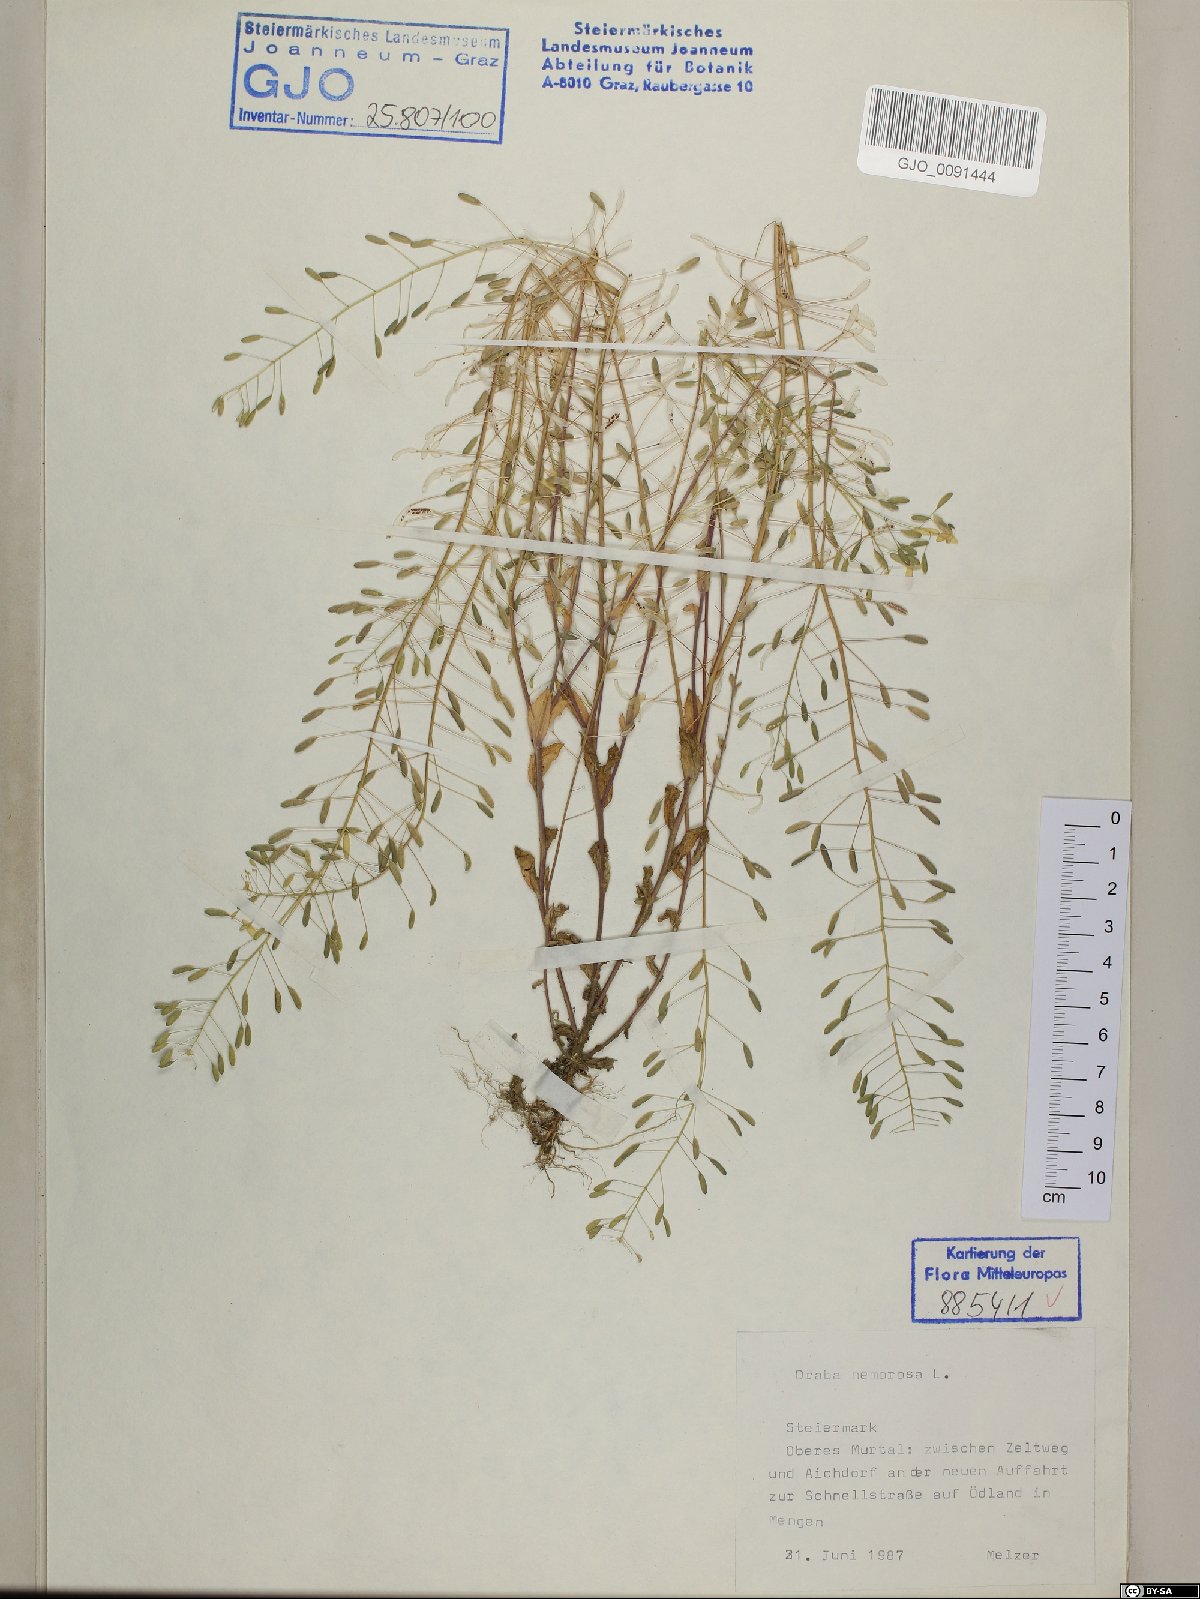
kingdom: Plantae
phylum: Tracheophyta
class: Magnoliopsida
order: Brassicales
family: Brassicaceae
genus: Draba
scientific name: Draba nemorosa
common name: Wood whitlow-grass
